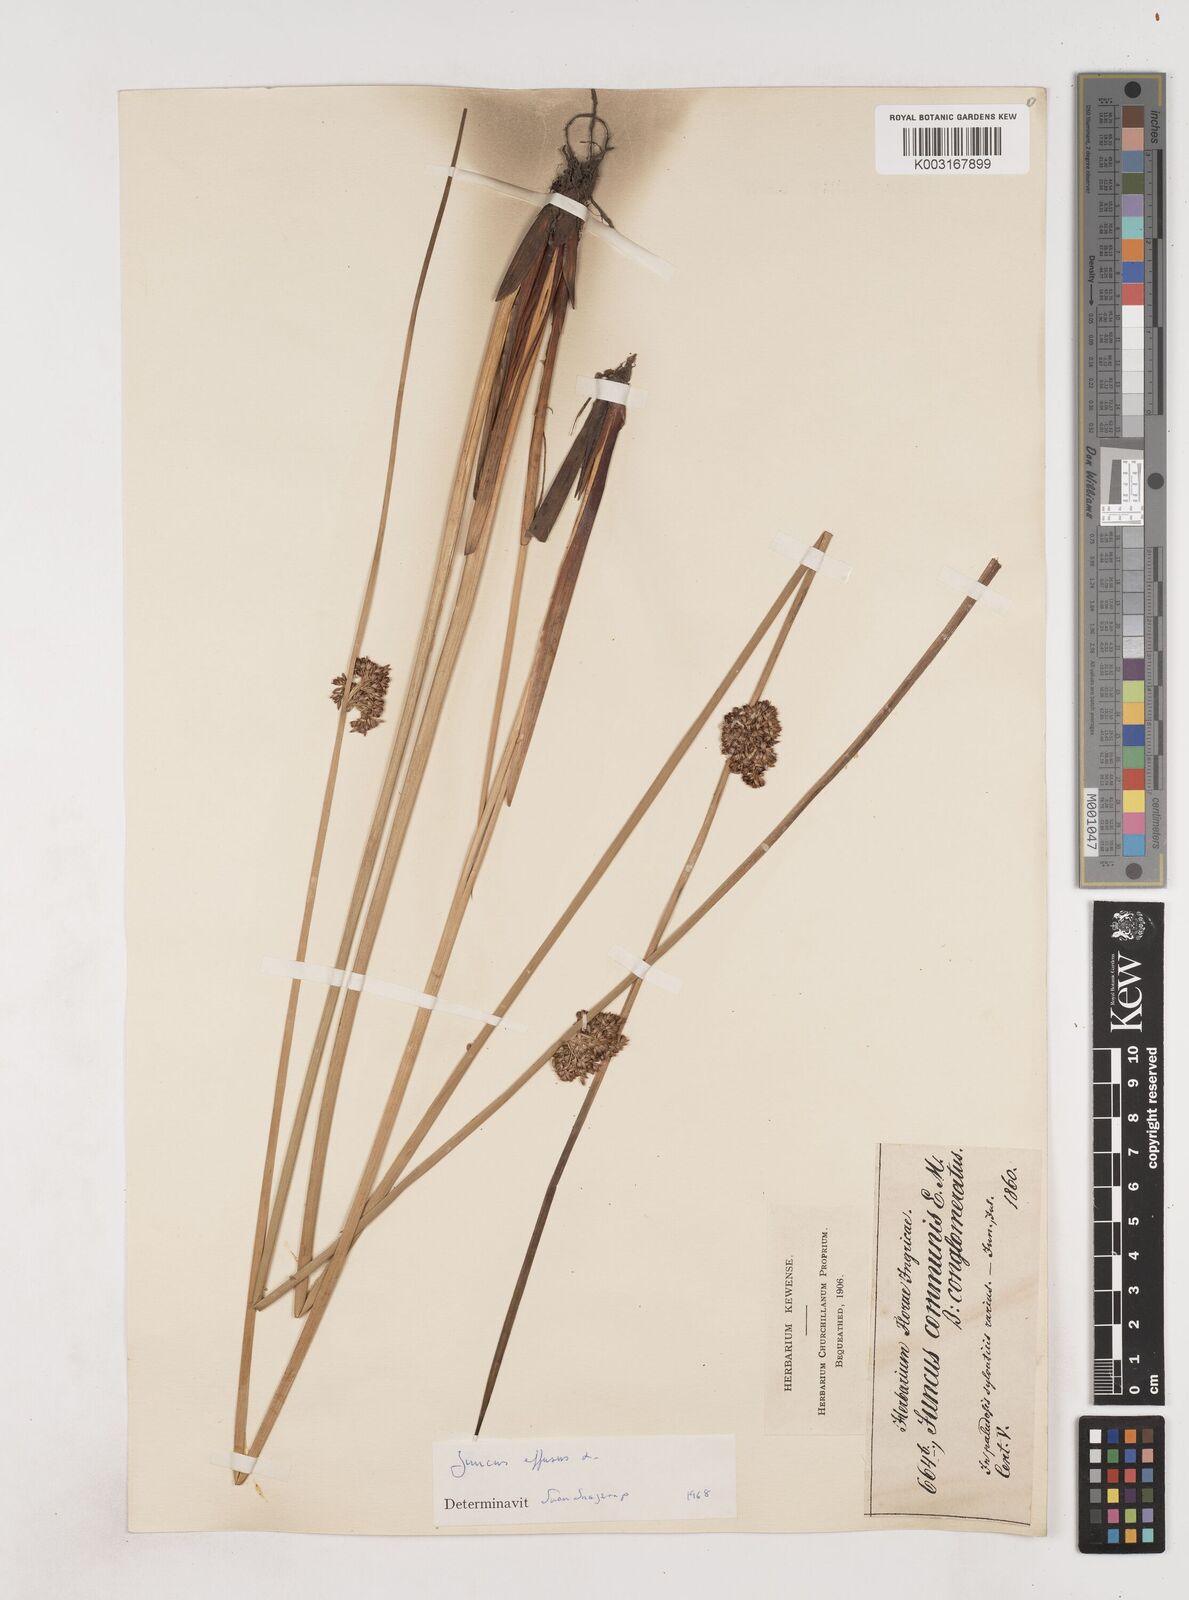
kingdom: Plantae
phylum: Tracheophyta
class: Liliopsida
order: Poales
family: Juncaceae
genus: Juncus
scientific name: Juncus effusus
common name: Soft rush
